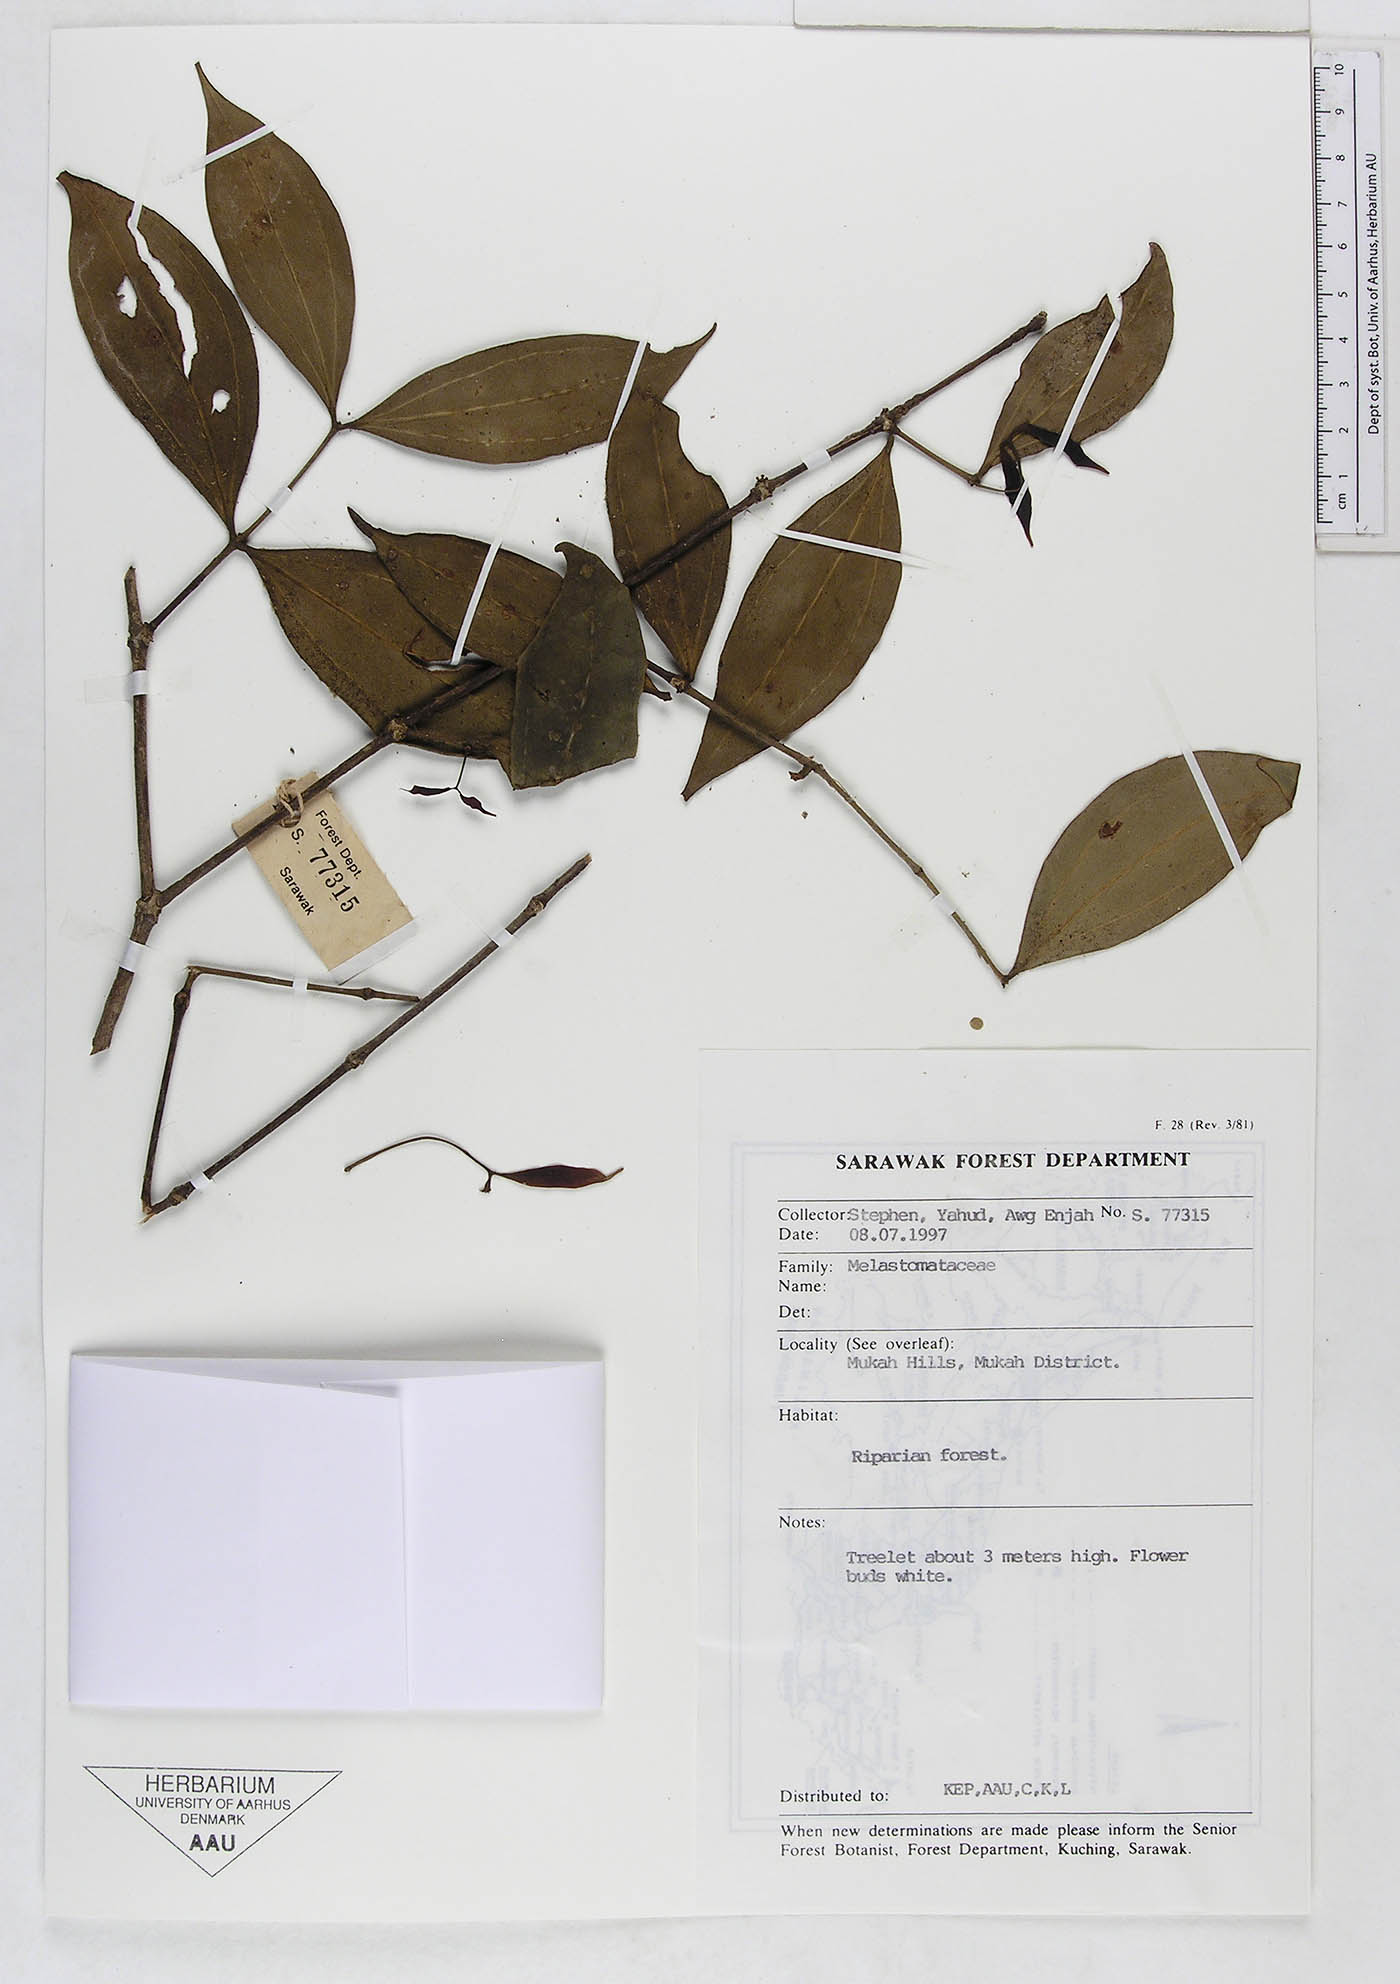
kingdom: Plantae
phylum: Tracheophyta
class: Magnoliopsida
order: Myrtales
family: Melastomataceae
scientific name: Melastomataceae
